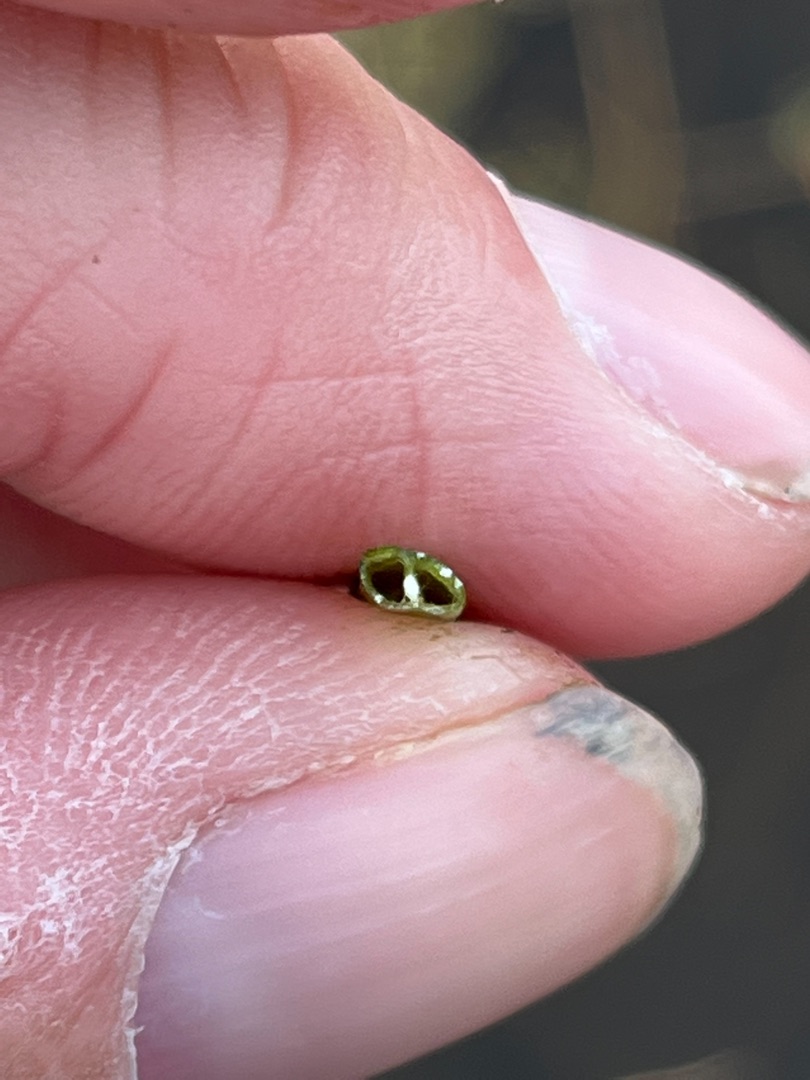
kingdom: Plantae
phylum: Tracheophyta
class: Magnoliopsida
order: Asterales
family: Campanulaceae
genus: Lobelia
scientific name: Lobelia dortmanna
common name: Tvepibet lobelie
